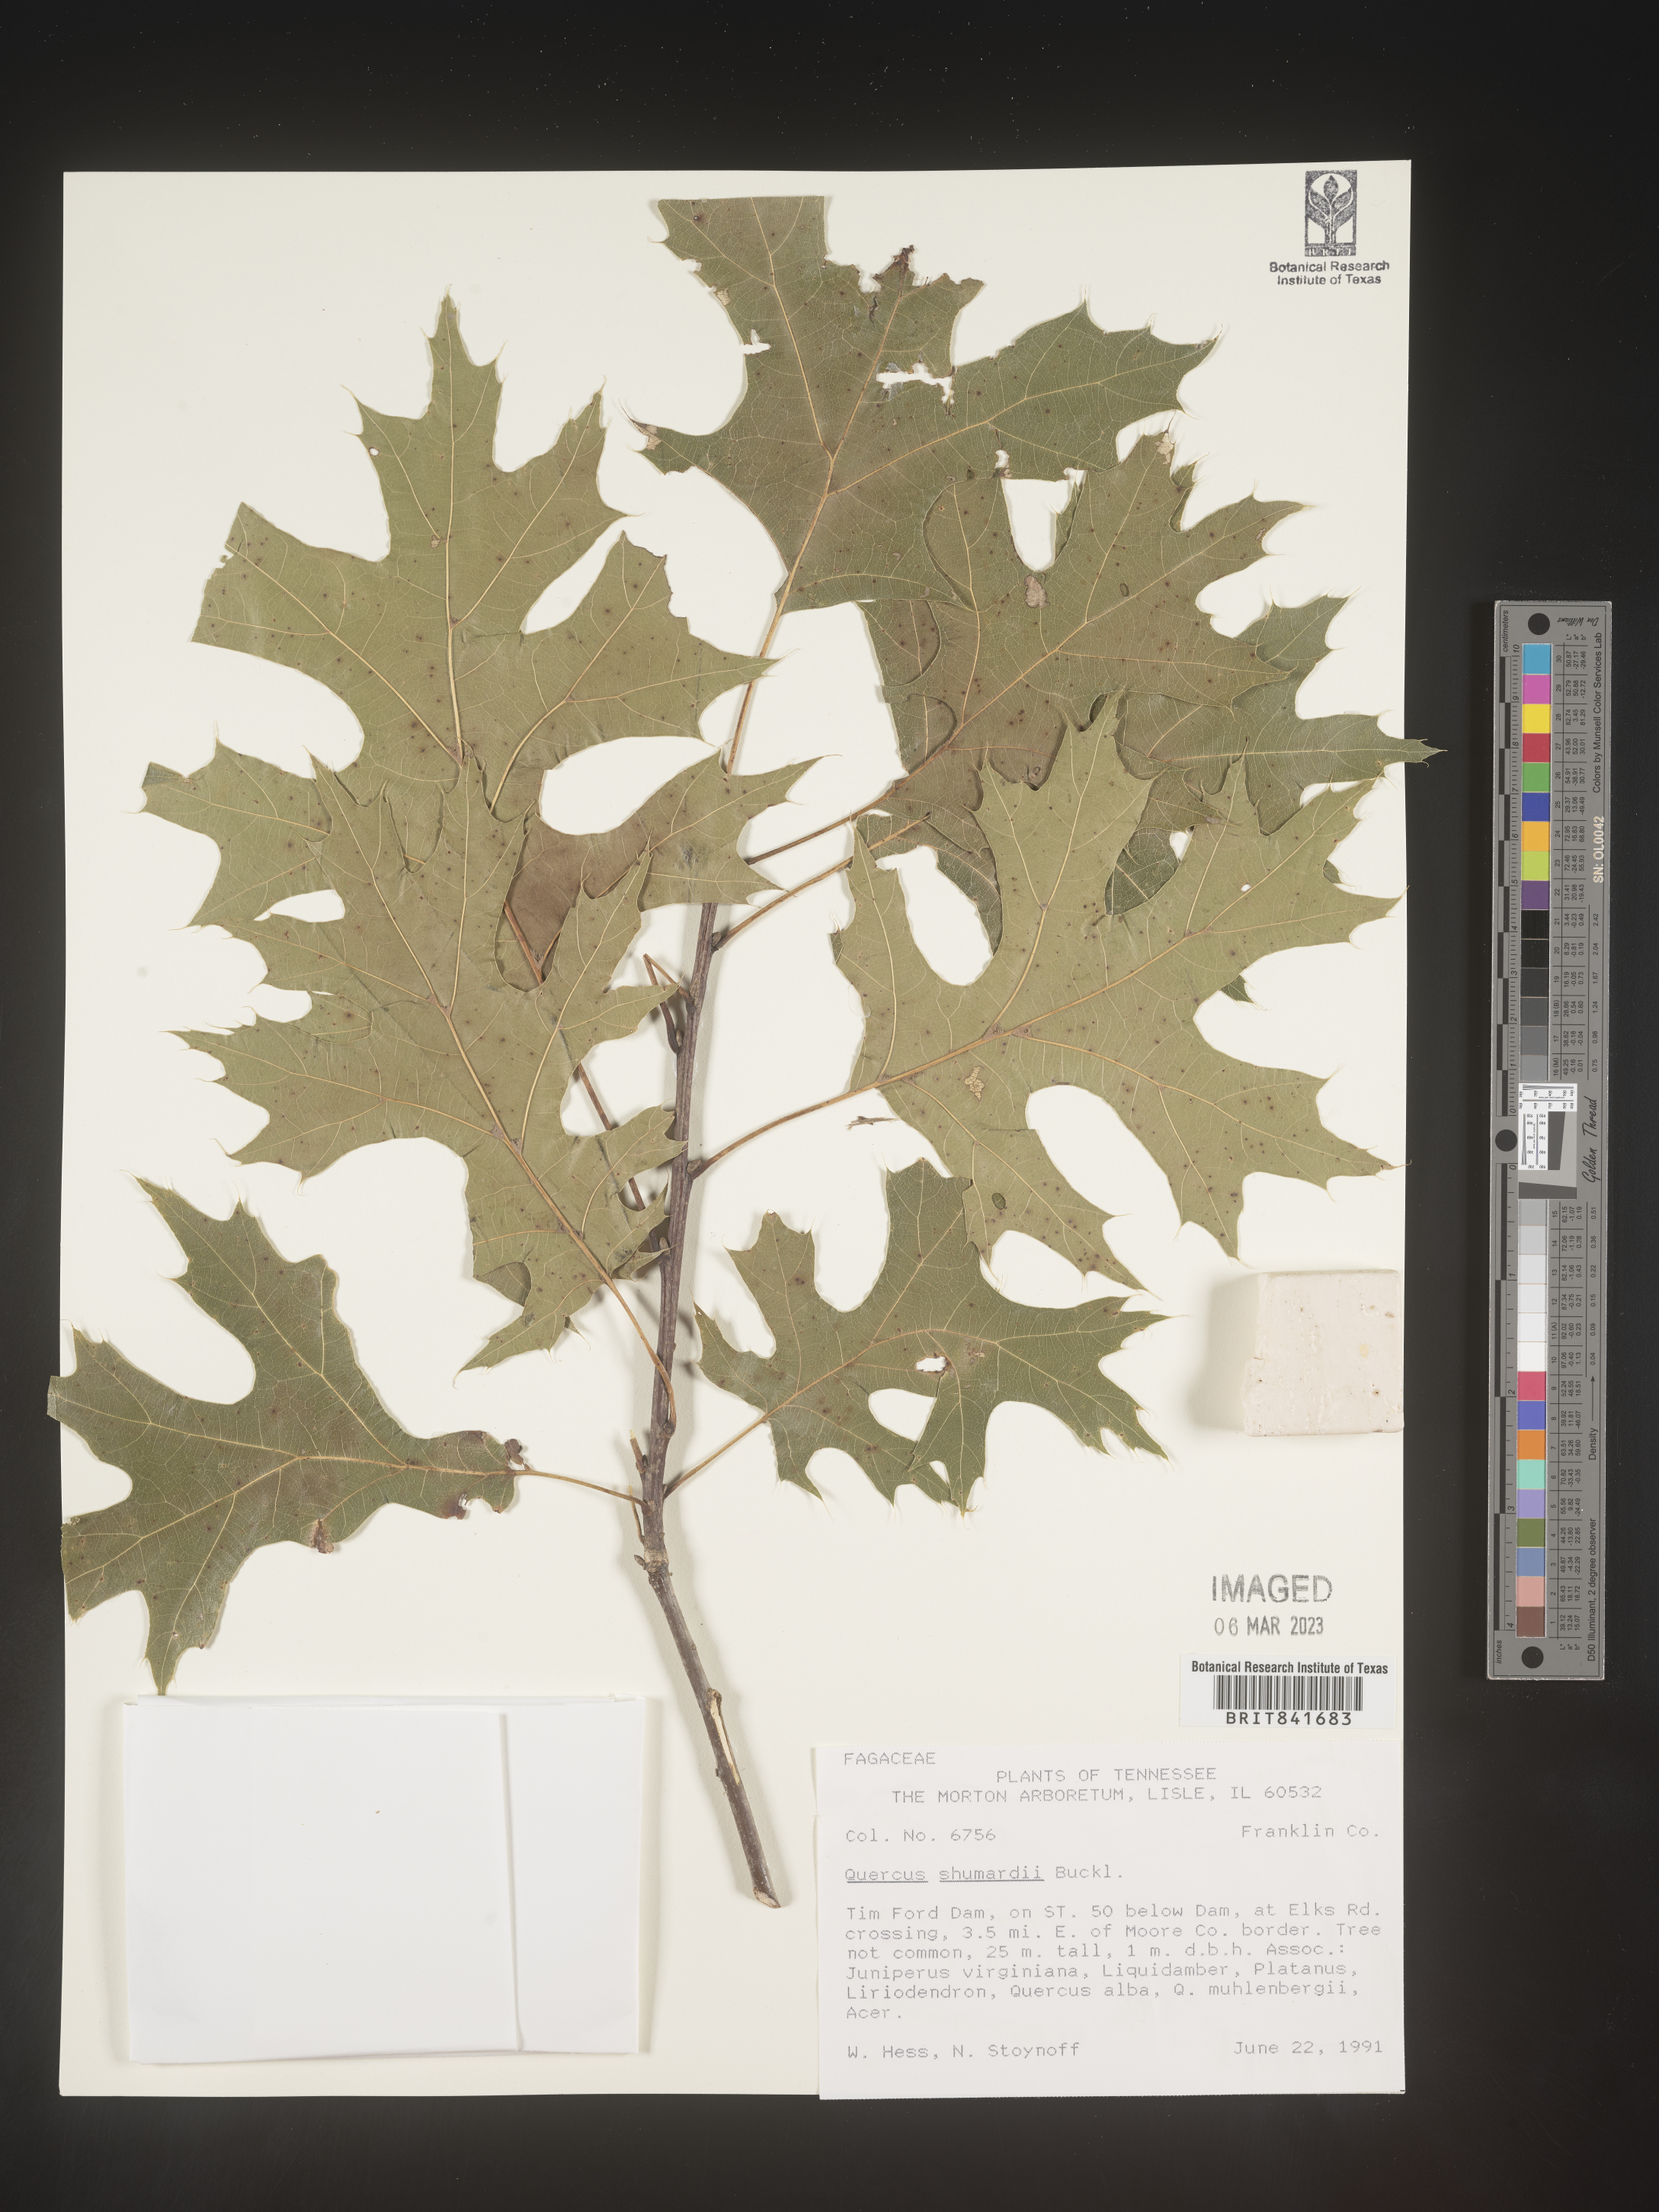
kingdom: Plantae
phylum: Tracheophyta
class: Magnoliopsida
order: Fagales
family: Fagaceae
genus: Quercus
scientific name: Quercus shumardii
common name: Shumard oak
